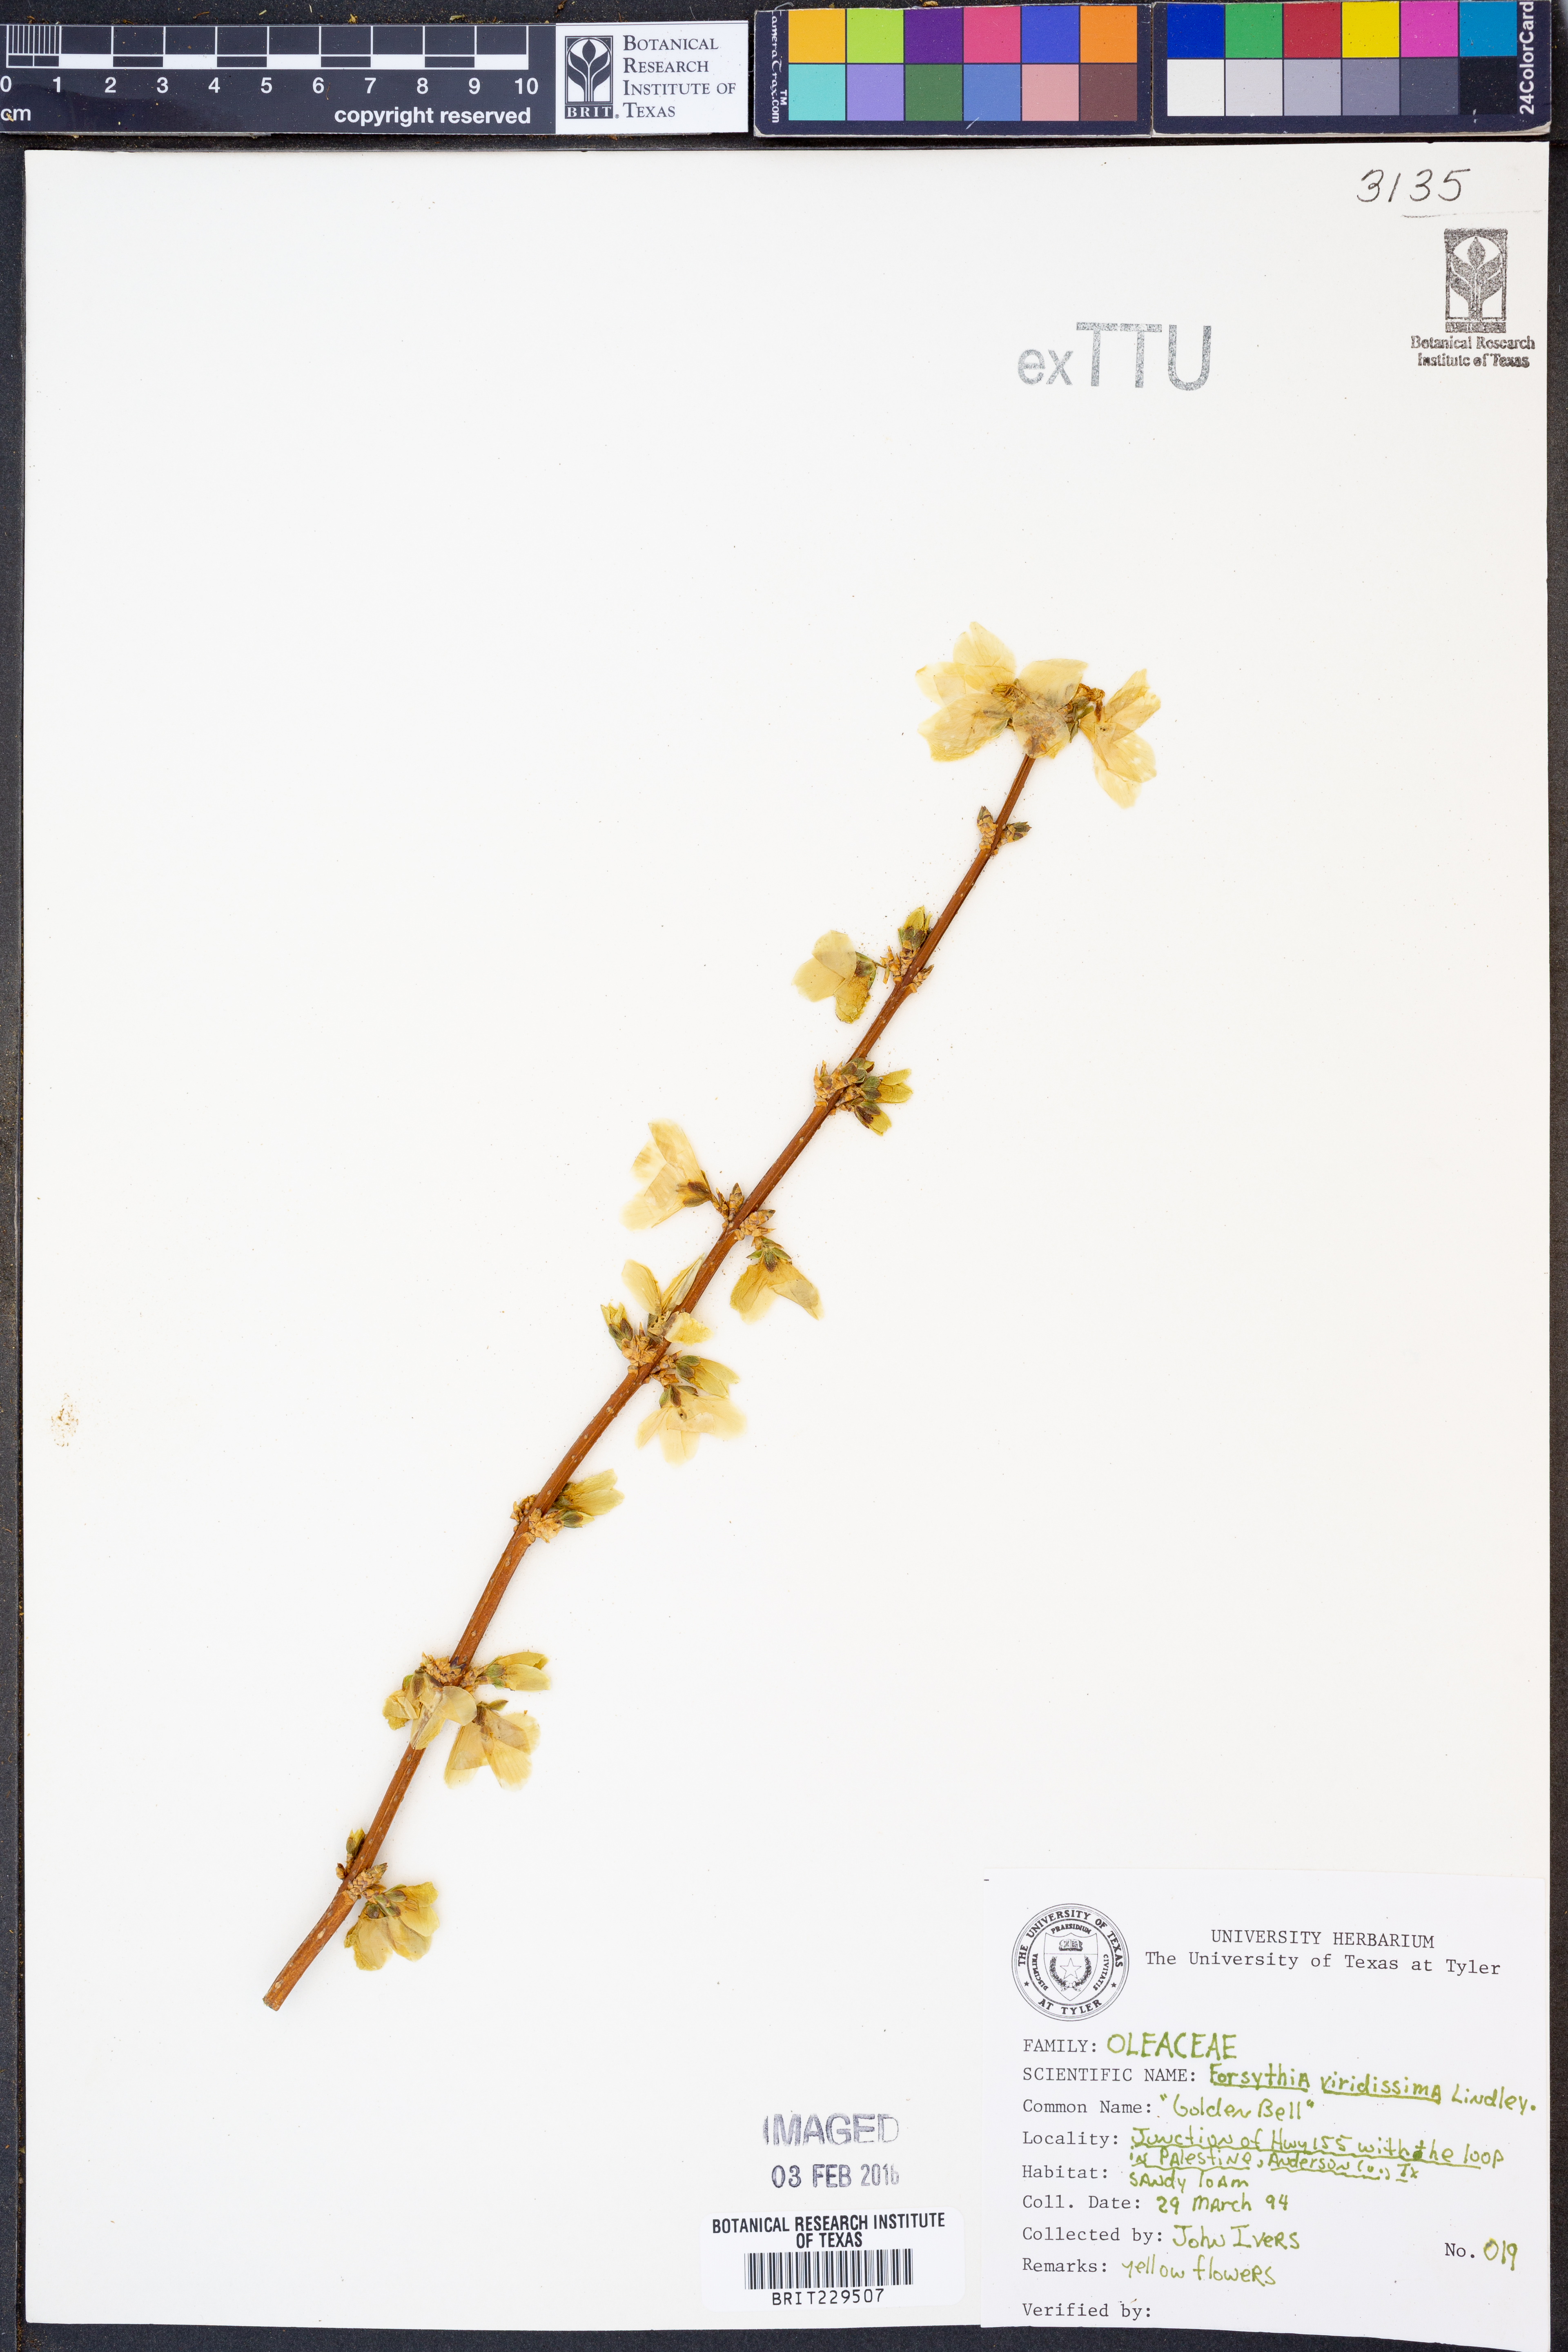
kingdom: Plantae
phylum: Tracheophyta
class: Magnoliopsida
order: Lamiales
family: Oleaceae
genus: Forsythia
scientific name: Forsythia viridissima
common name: Greenstem forsythia
